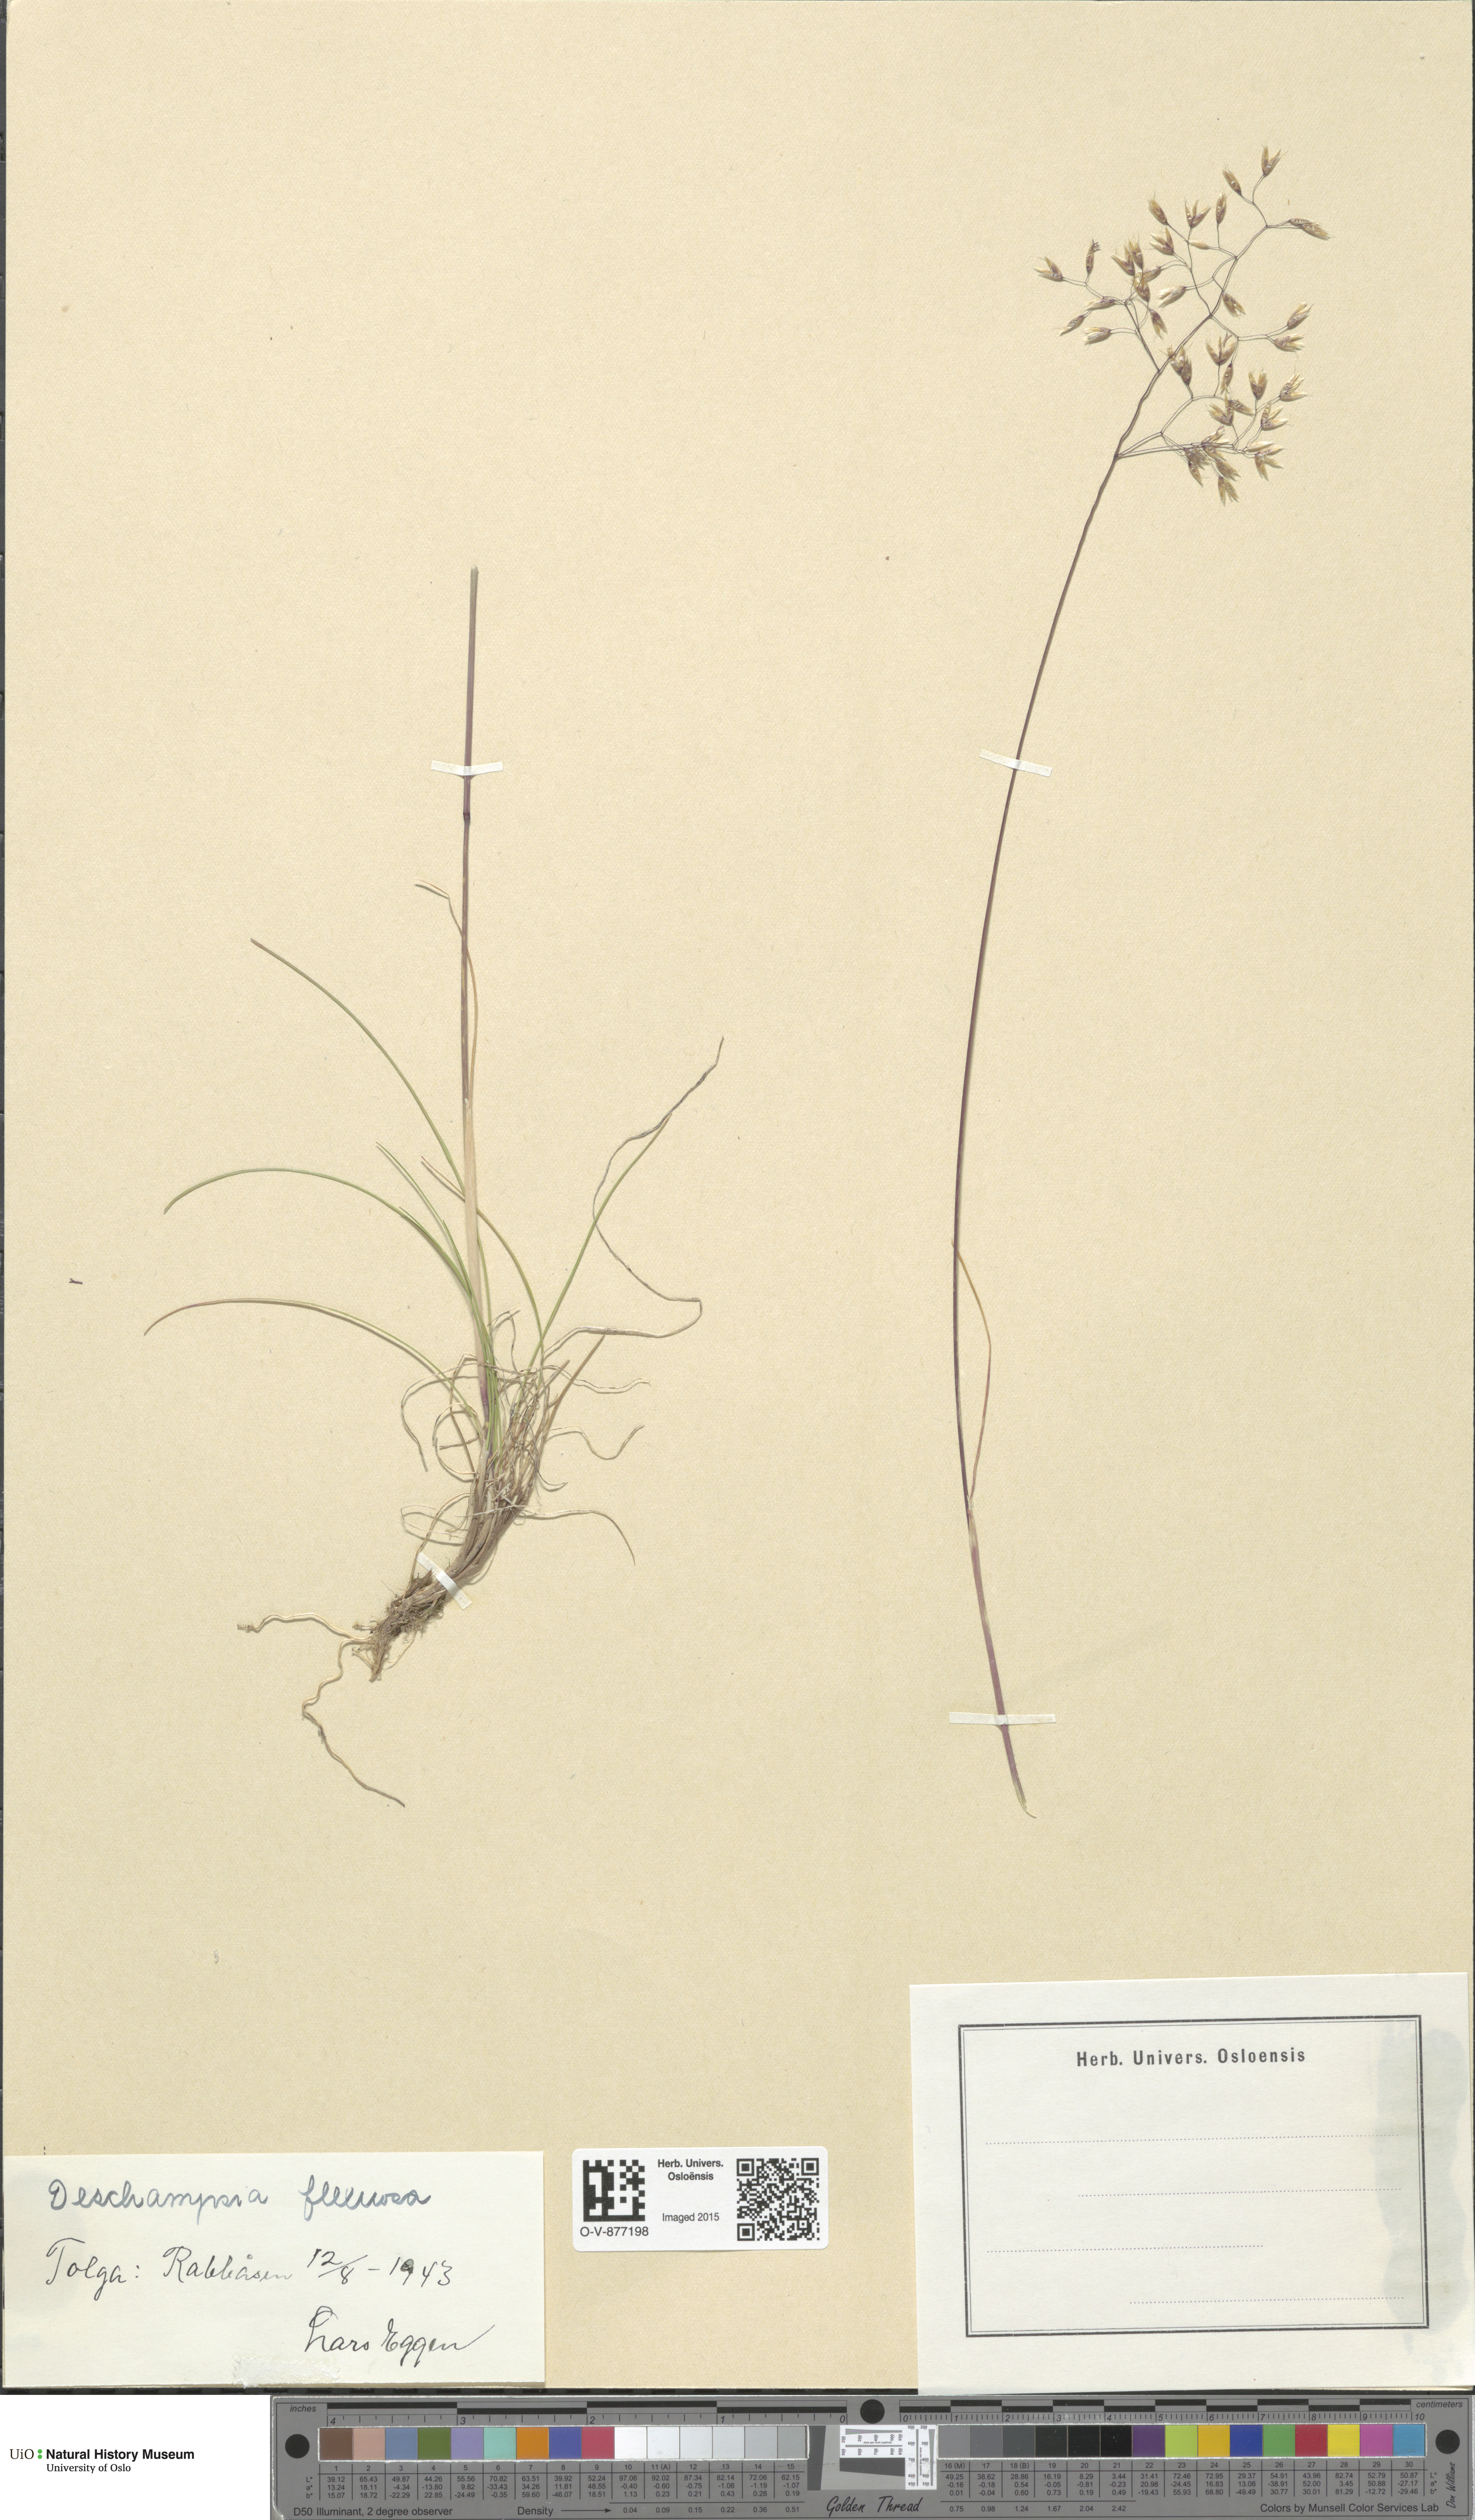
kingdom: Plantae
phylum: Tracheophyta
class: Liliopsida
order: Poales
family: Poaceae
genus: Avenella
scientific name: Avenella flexuosa
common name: Wavy hairgrass
